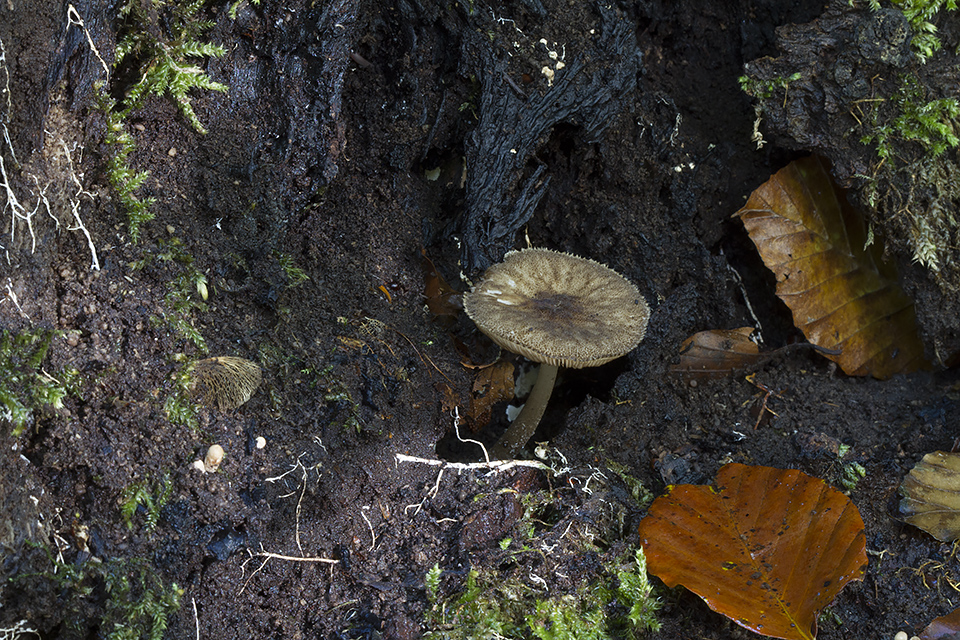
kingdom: Fungi
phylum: Basidiomycota
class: Agaricomycetes
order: Agaricales
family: Pluteaceae
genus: Pluteus
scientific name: Pluteus umbrosus
